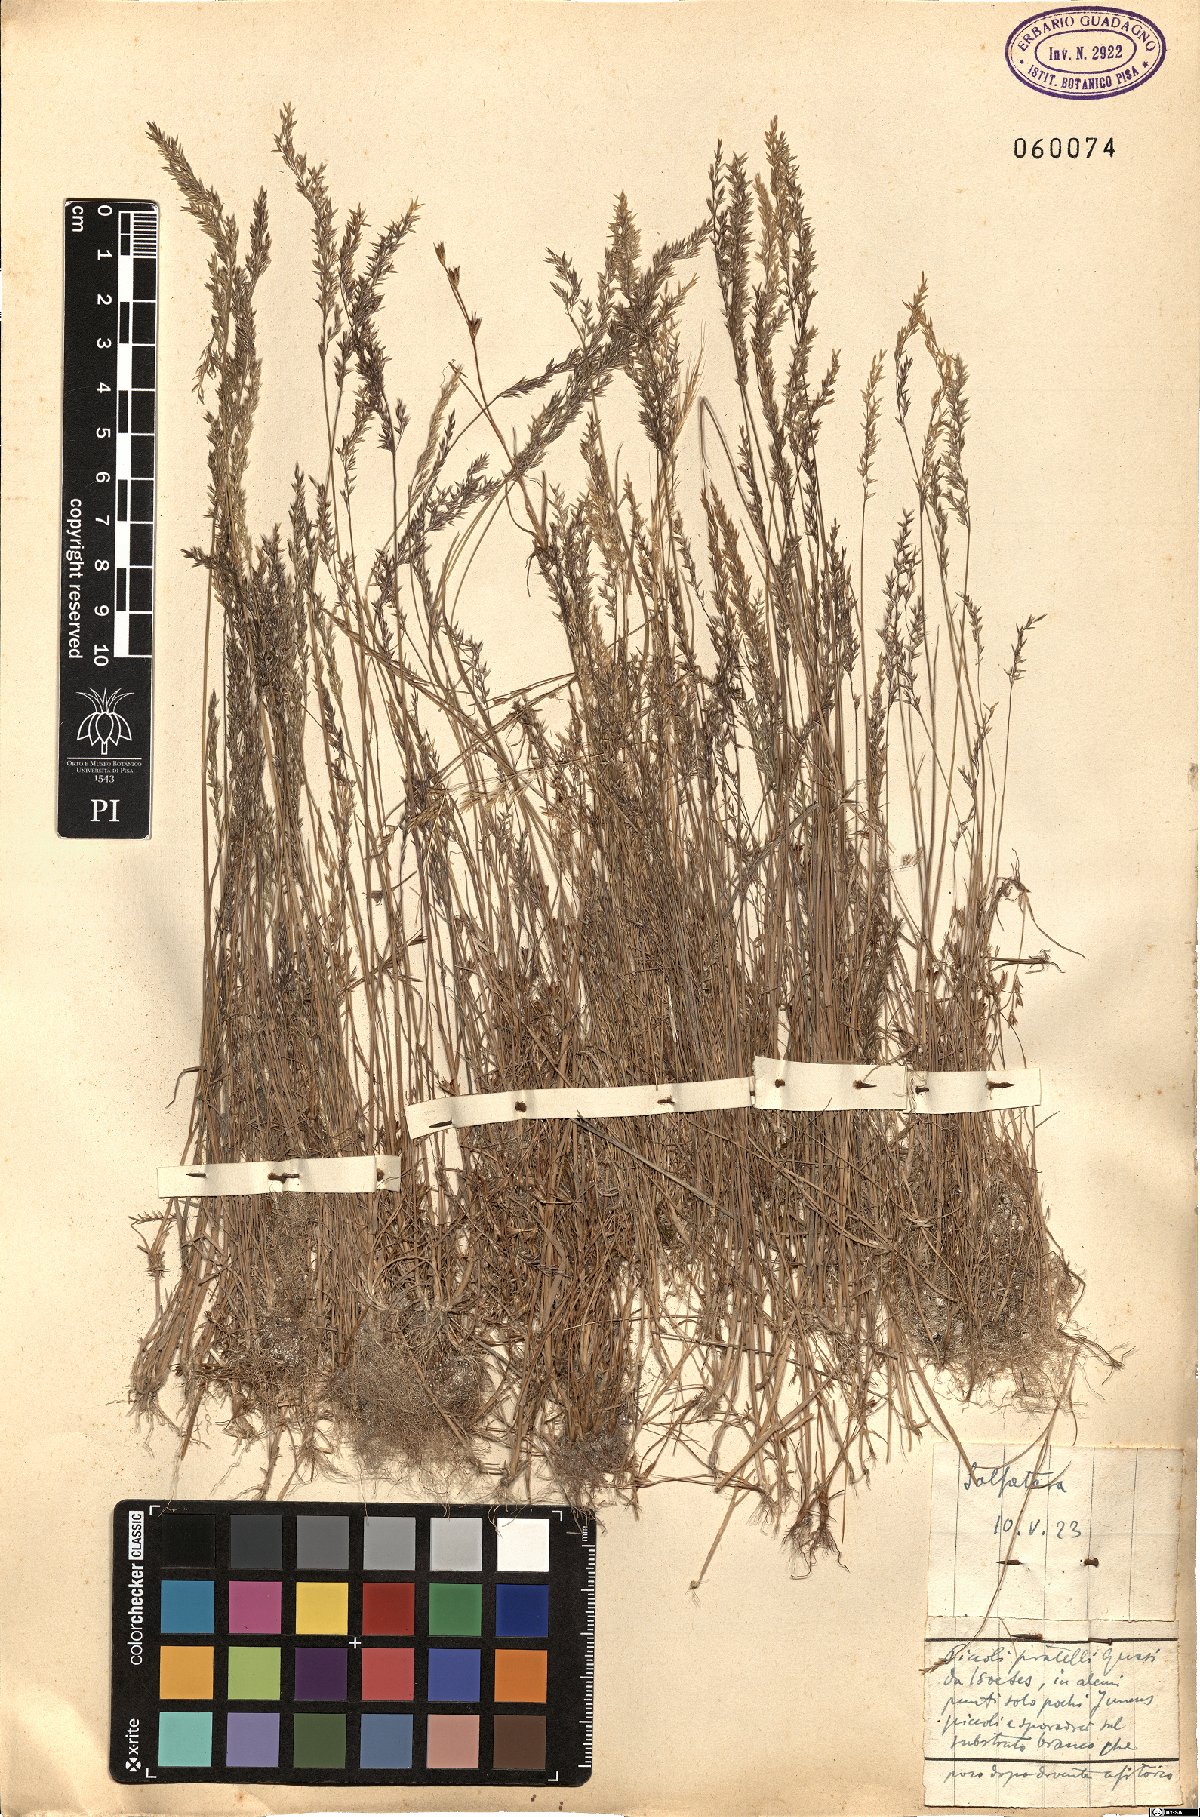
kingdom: Plantae
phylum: Tracheophyta
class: Liliopsida
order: Poales
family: Poaceae
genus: Agrostis
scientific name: Agrostis stolonifera
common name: Creeping bentgrass
